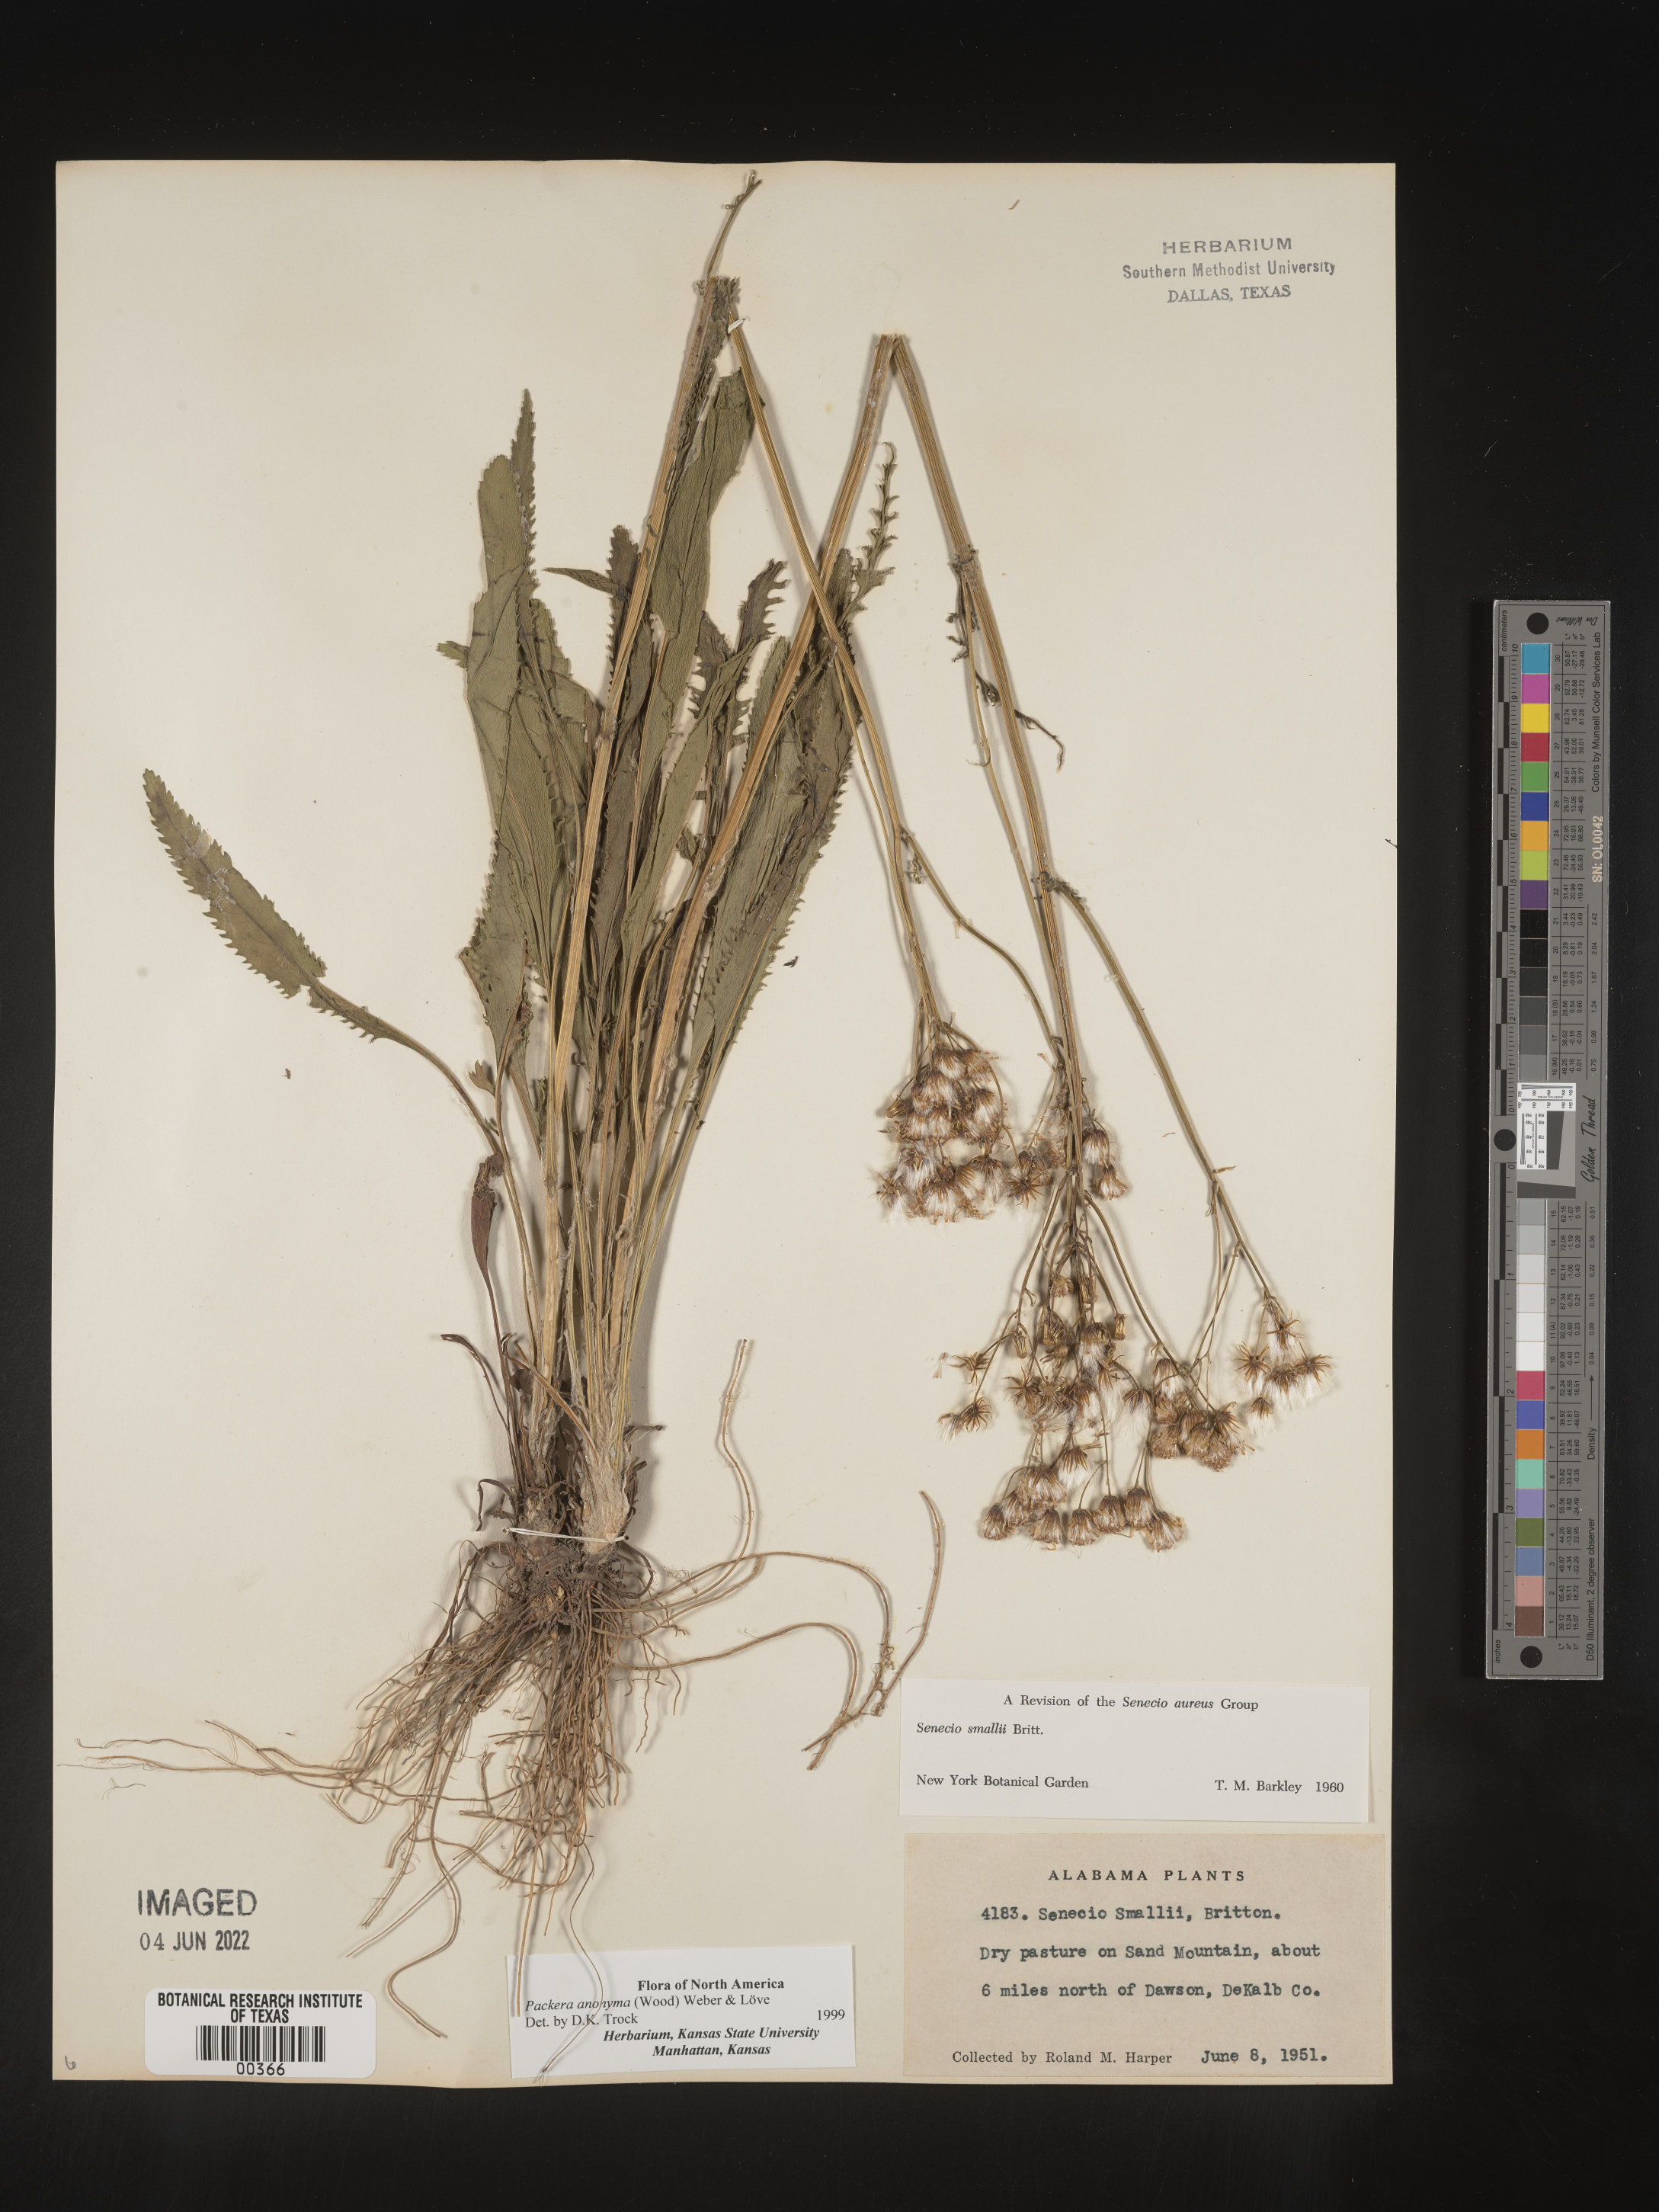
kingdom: Plantae
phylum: Tracheophyta
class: Magnoliopsida
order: Asterales
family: Asteraceae
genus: Packera
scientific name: Packera anonyma
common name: Small ragwort
